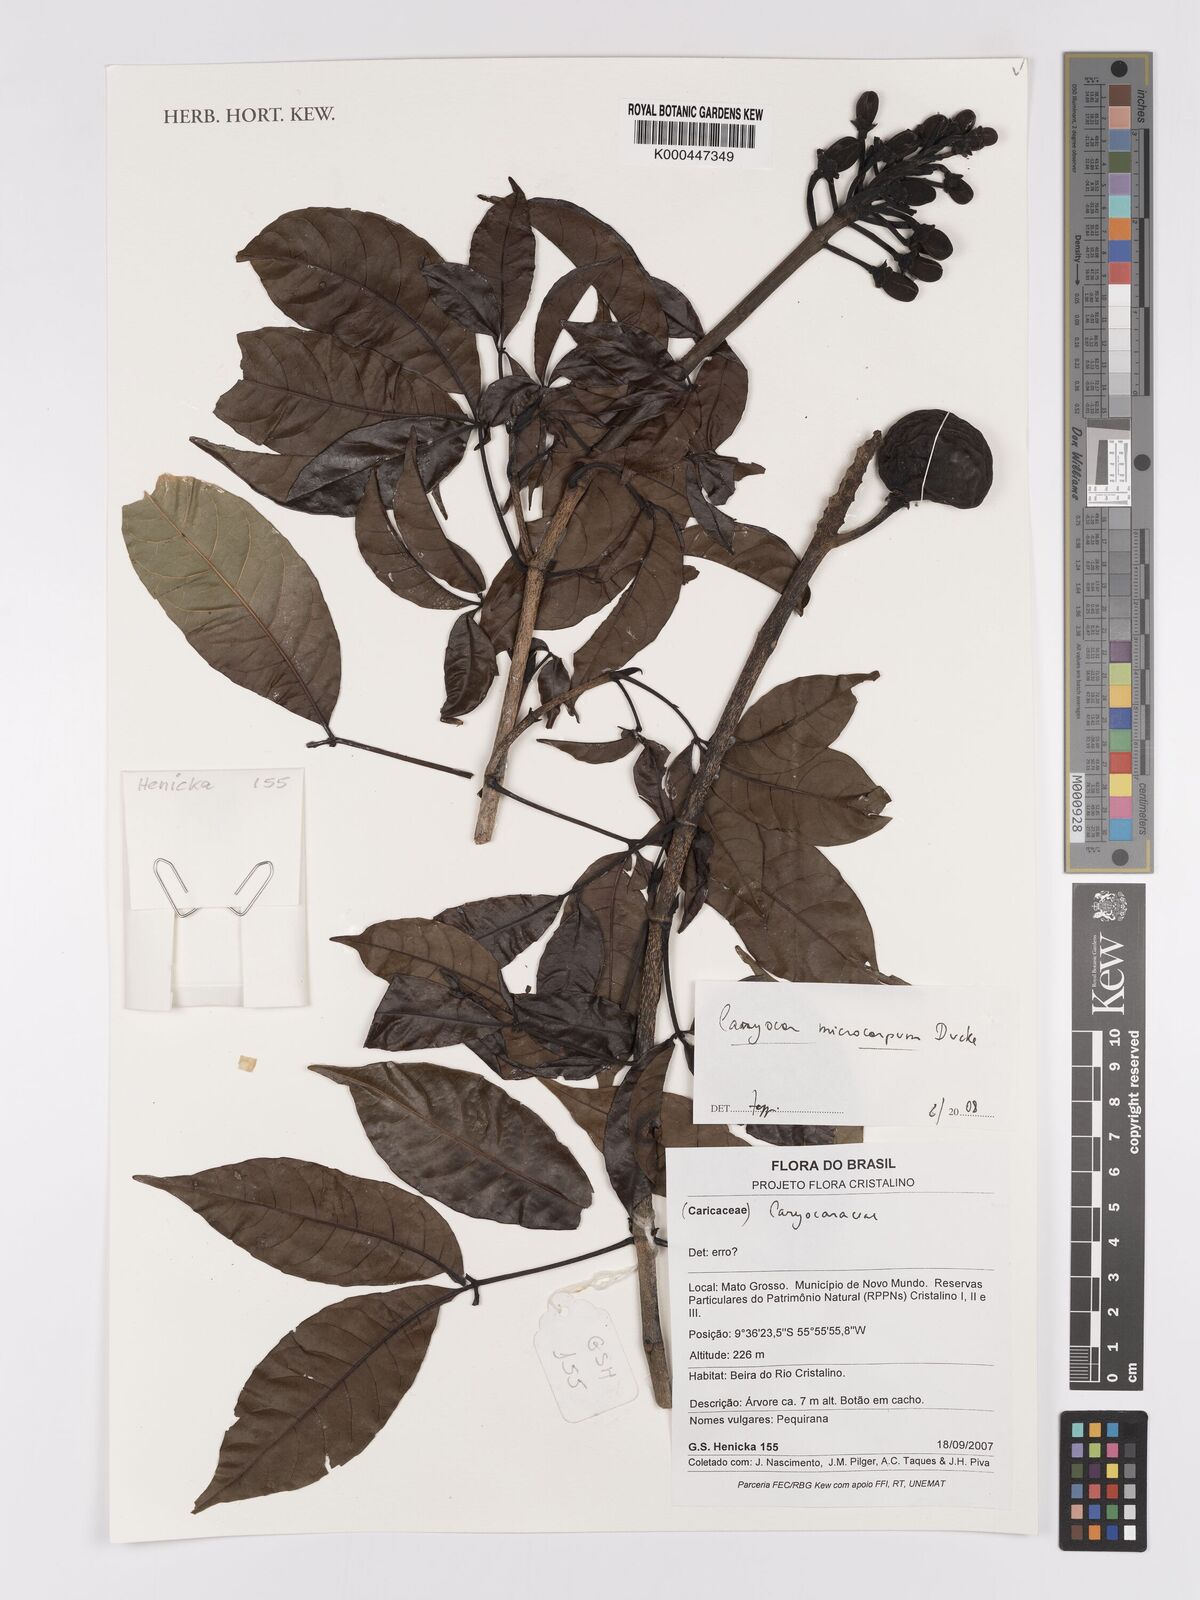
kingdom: Plantae
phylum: Tracheophyta
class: Magnoliopsida
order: Malpighiales
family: Caryocaraceae
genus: Caryocar
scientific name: Caryocar microcarpum
